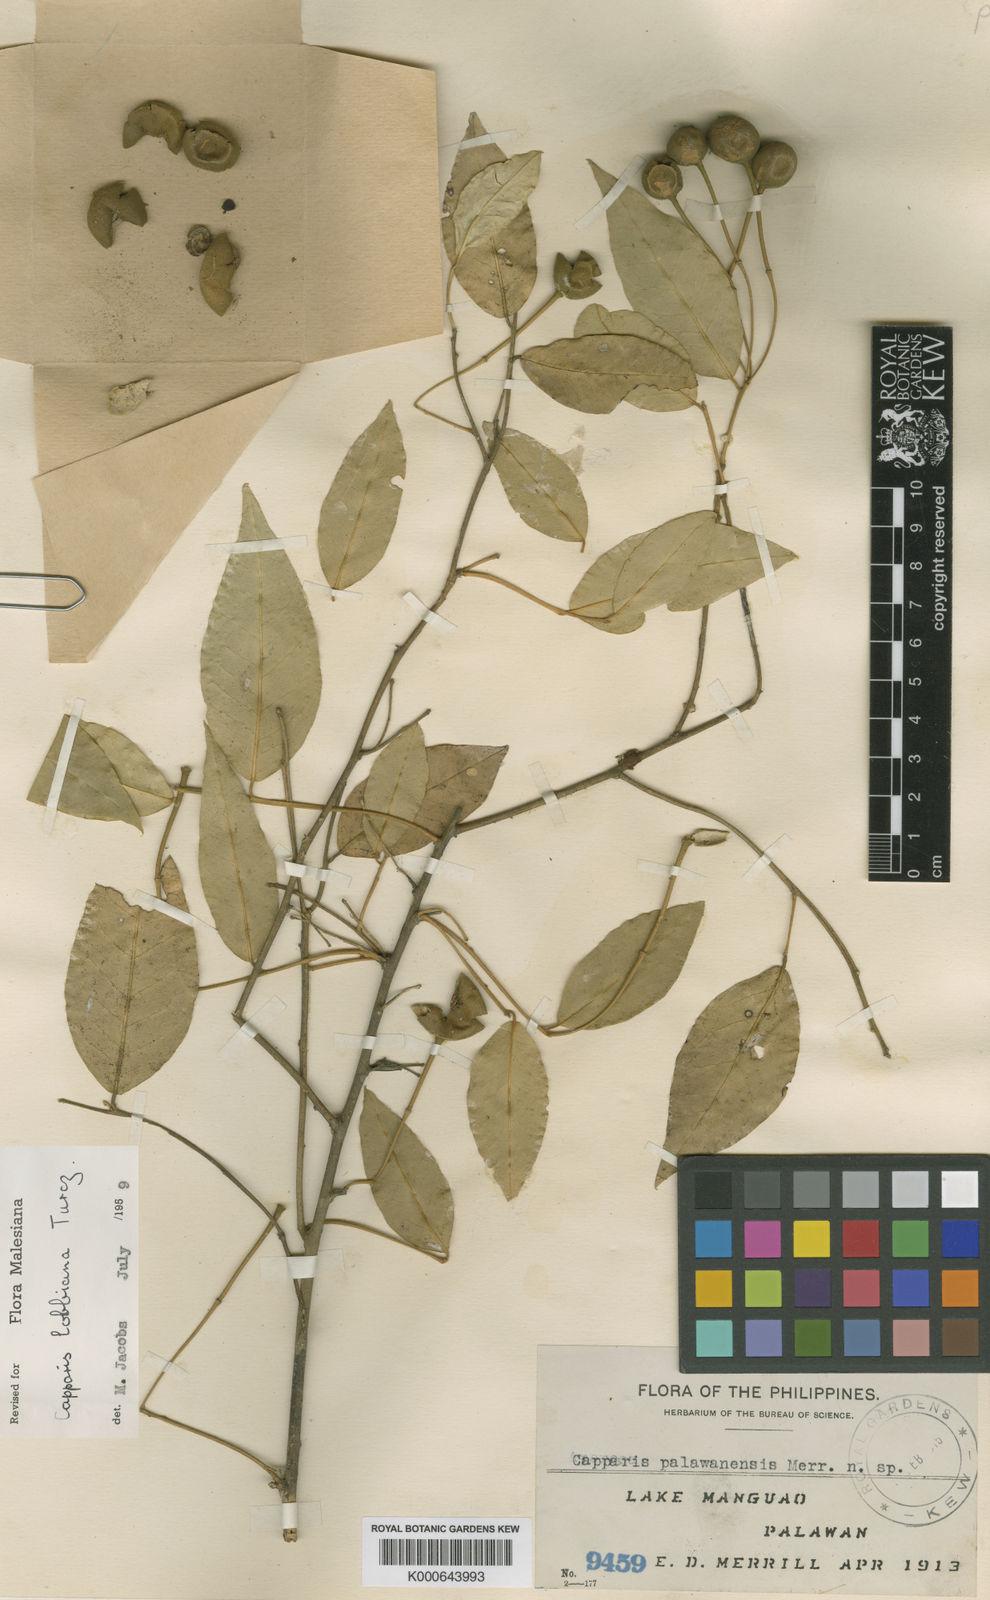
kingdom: Plantae
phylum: Tracheophyta
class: Magnoliopsida
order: Brassicales
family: Capparaceae
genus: Capparis
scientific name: Capparis lobbiana
